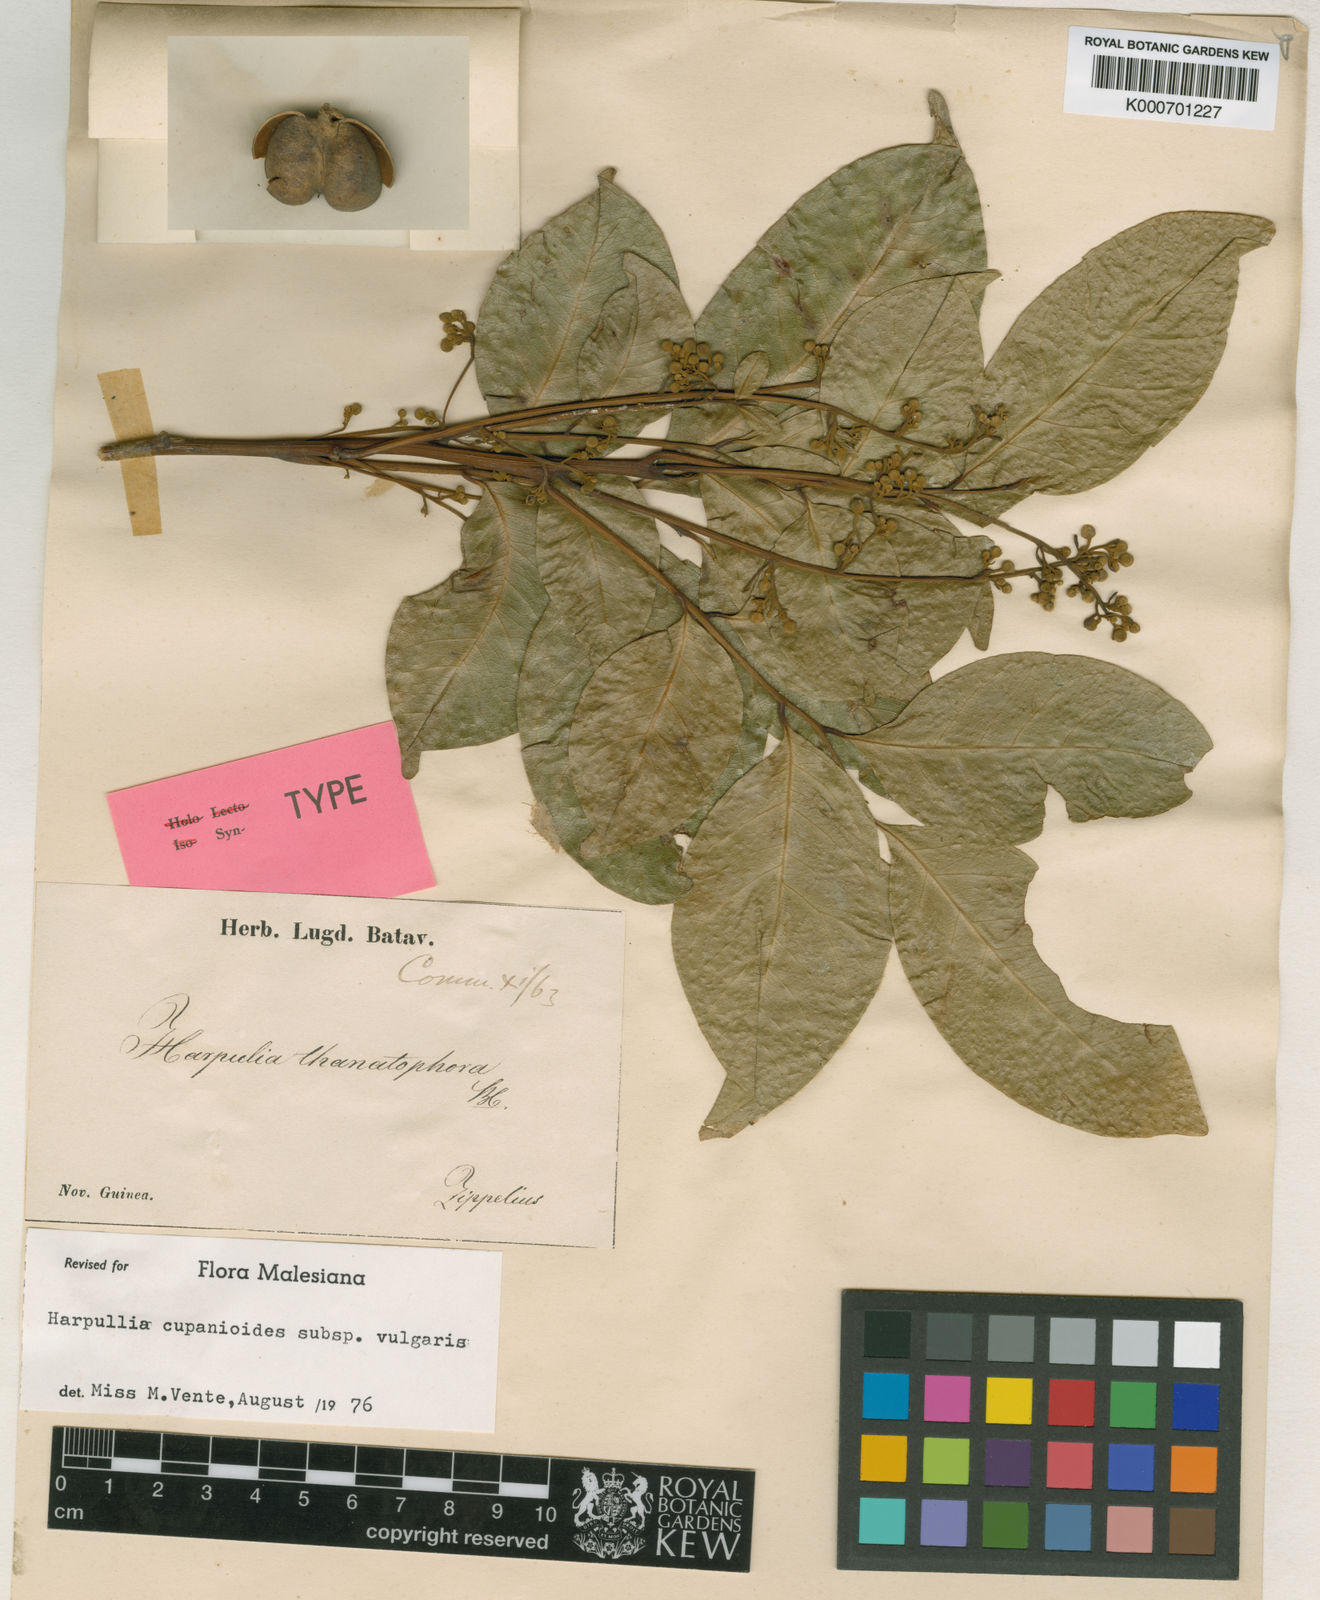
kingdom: Plantae
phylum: Tracheophyta
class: Magnoliopsida
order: Sapindales
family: Sapindaceae
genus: Harpullia
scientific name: Harpullia cupanioides
